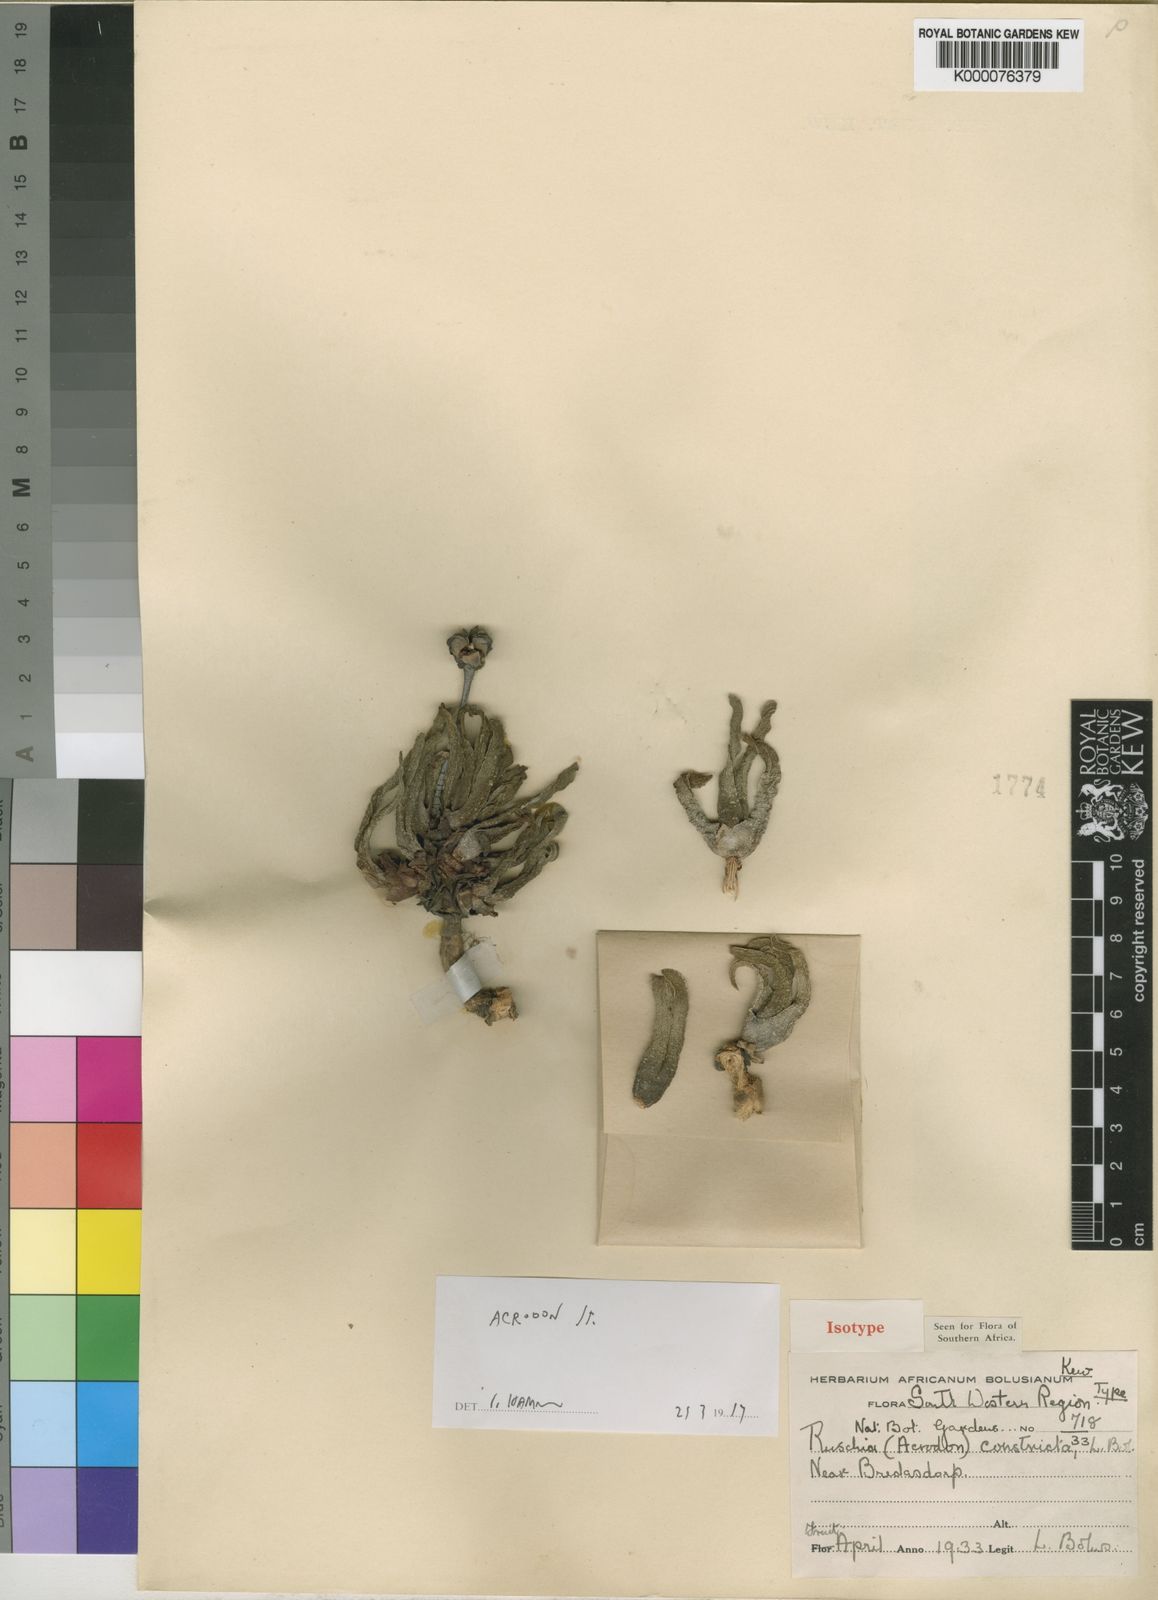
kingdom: Plantae
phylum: Tracheophyta
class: Magnoliopsida
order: Caryophyllales
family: Aizoaceae
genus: Acrodon
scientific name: Acrodon
